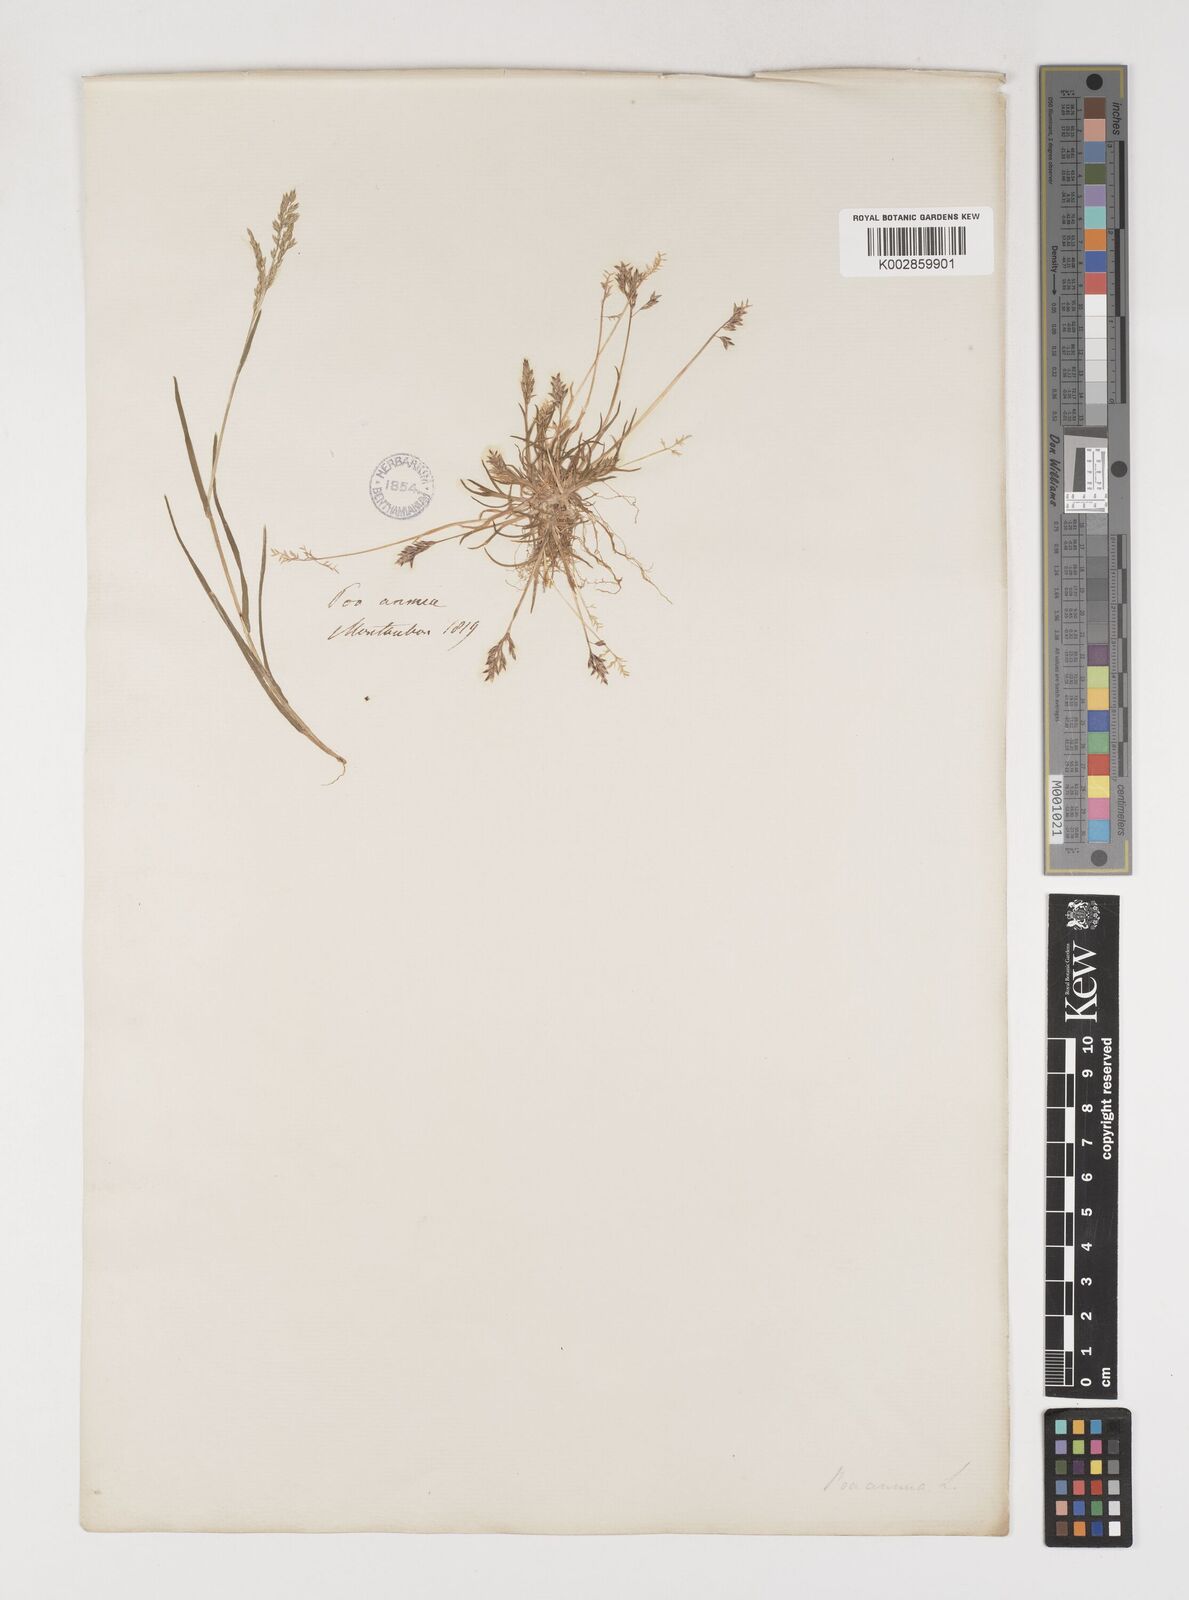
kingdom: Plantae
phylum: Tracheophyta
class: Liliopsida
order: Poales
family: Poaceae
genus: Poa
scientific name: Poa annua
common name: Annual bluegrass
